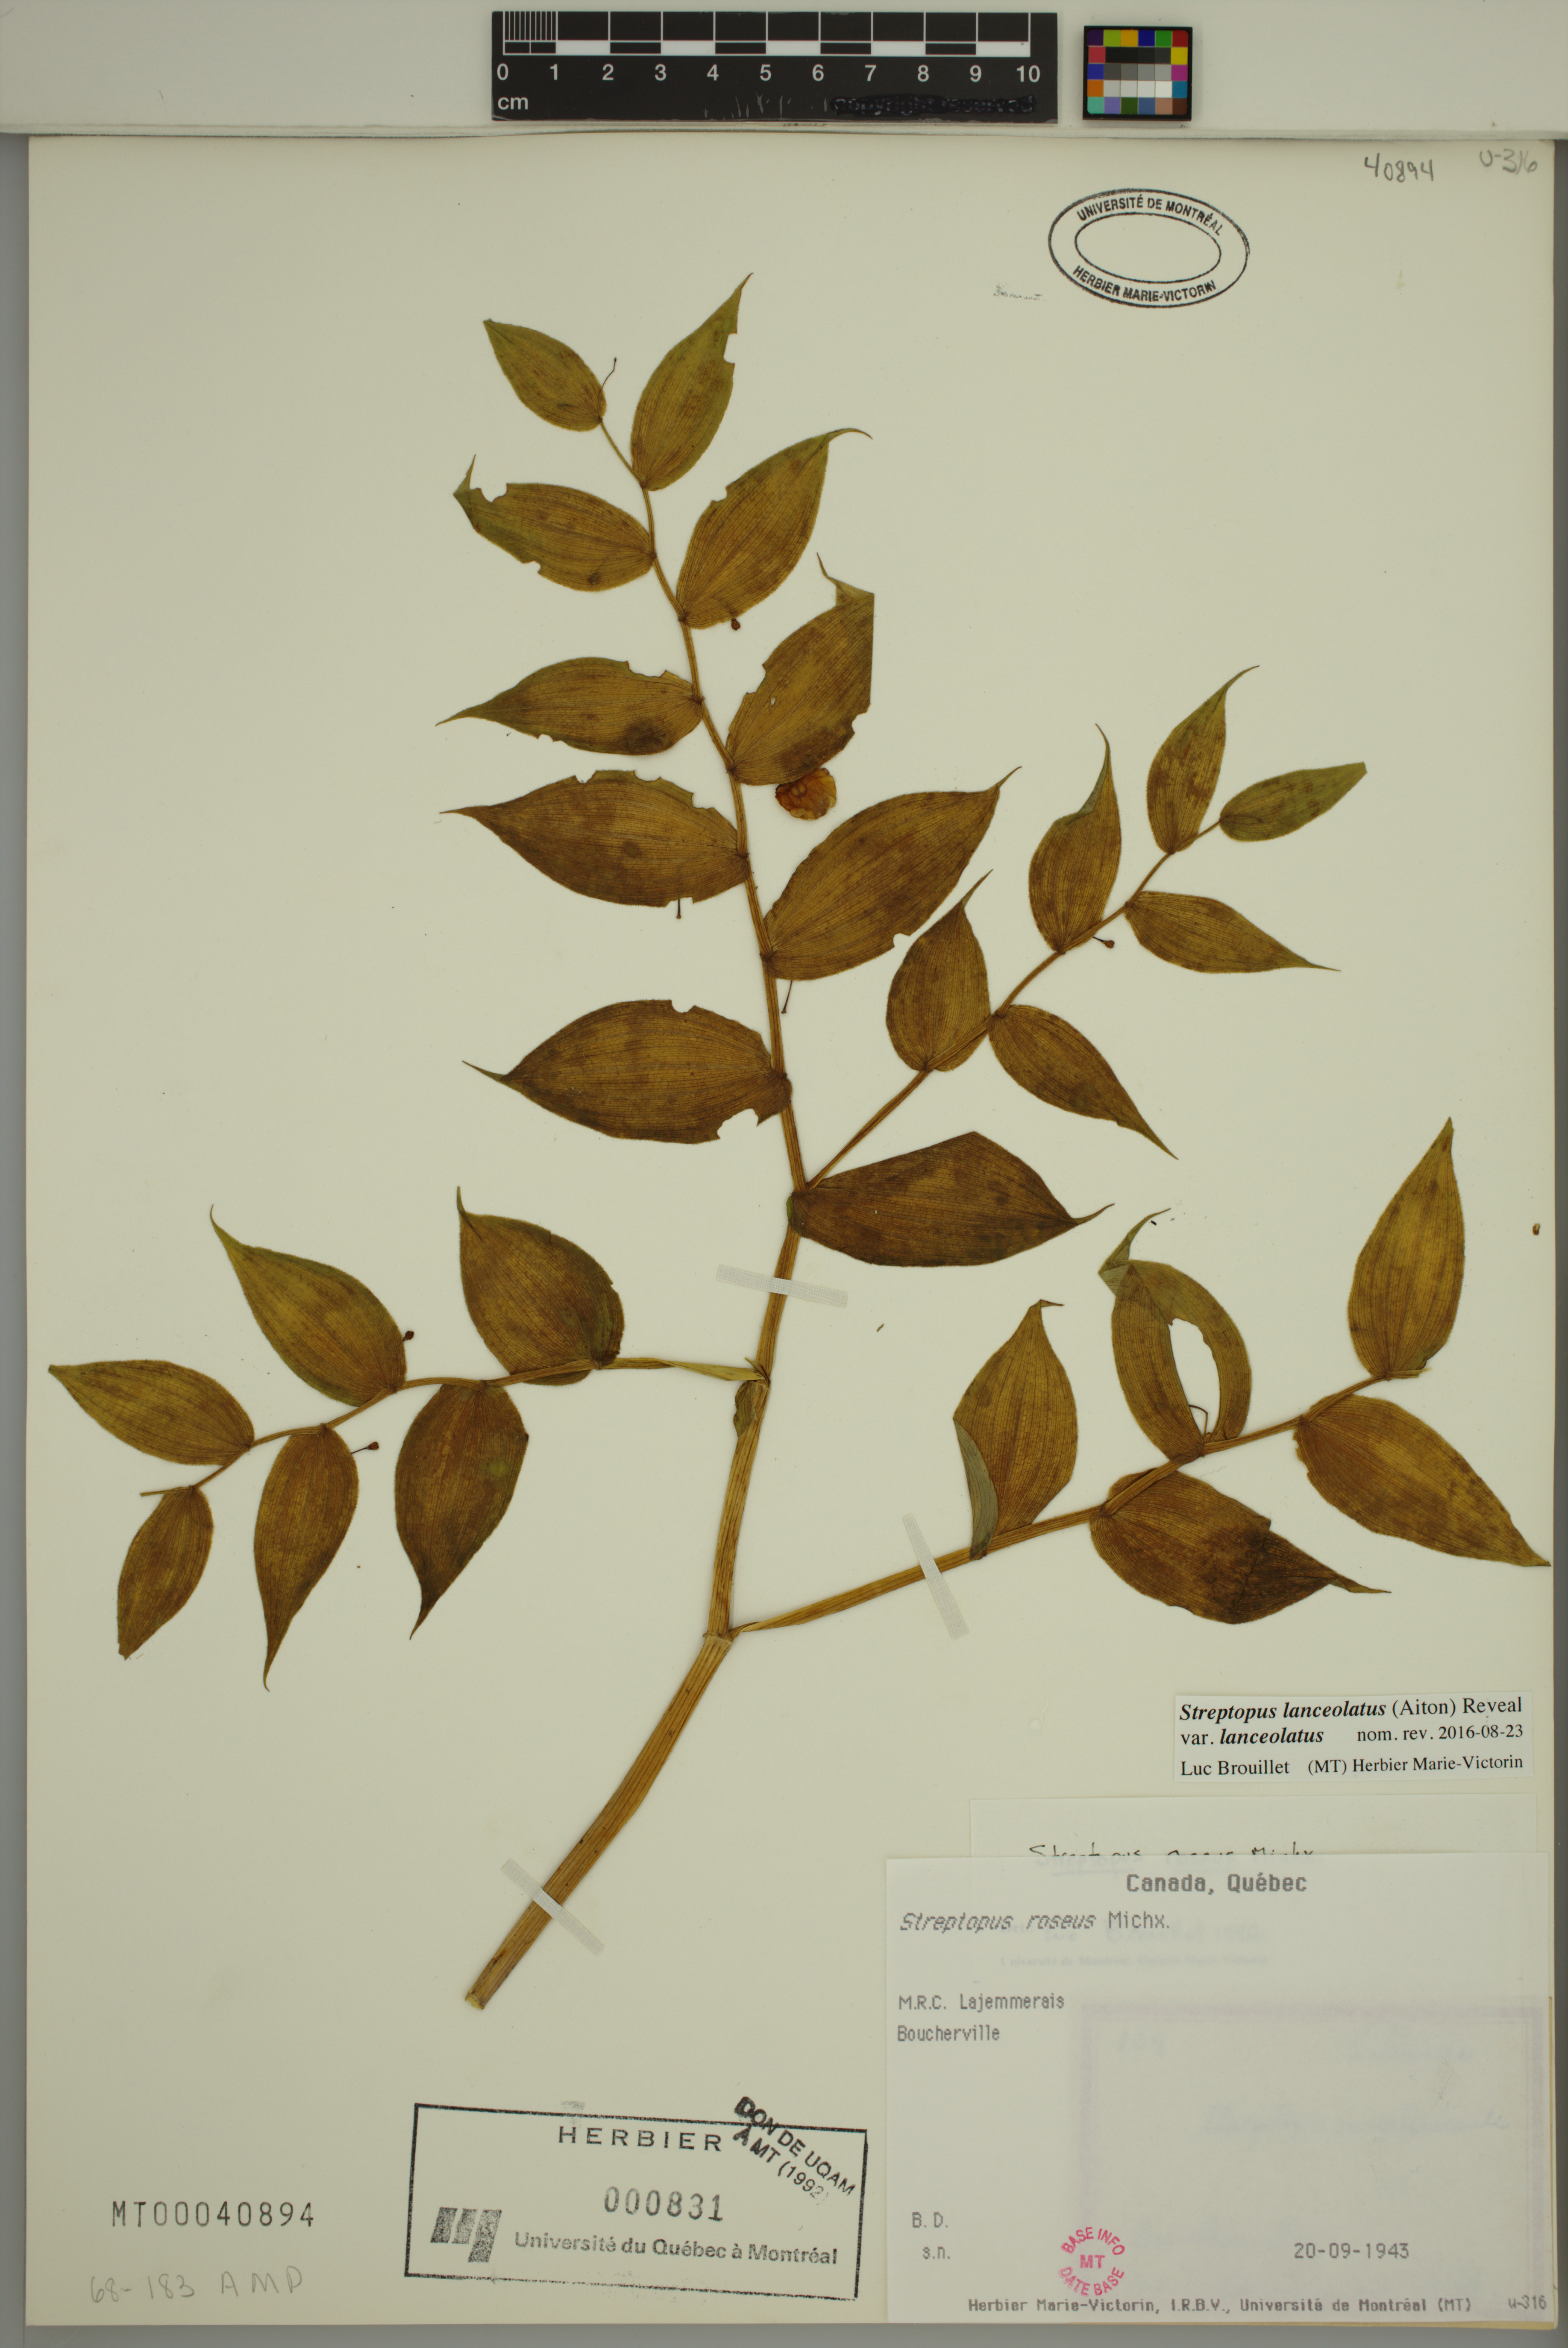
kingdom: Plantae
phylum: Tracheophyta
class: Liliopsida
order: Liliales
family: Liliaceae
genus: Streptopus
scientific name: Streptopus lanceolatus
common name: Rose mandarin
